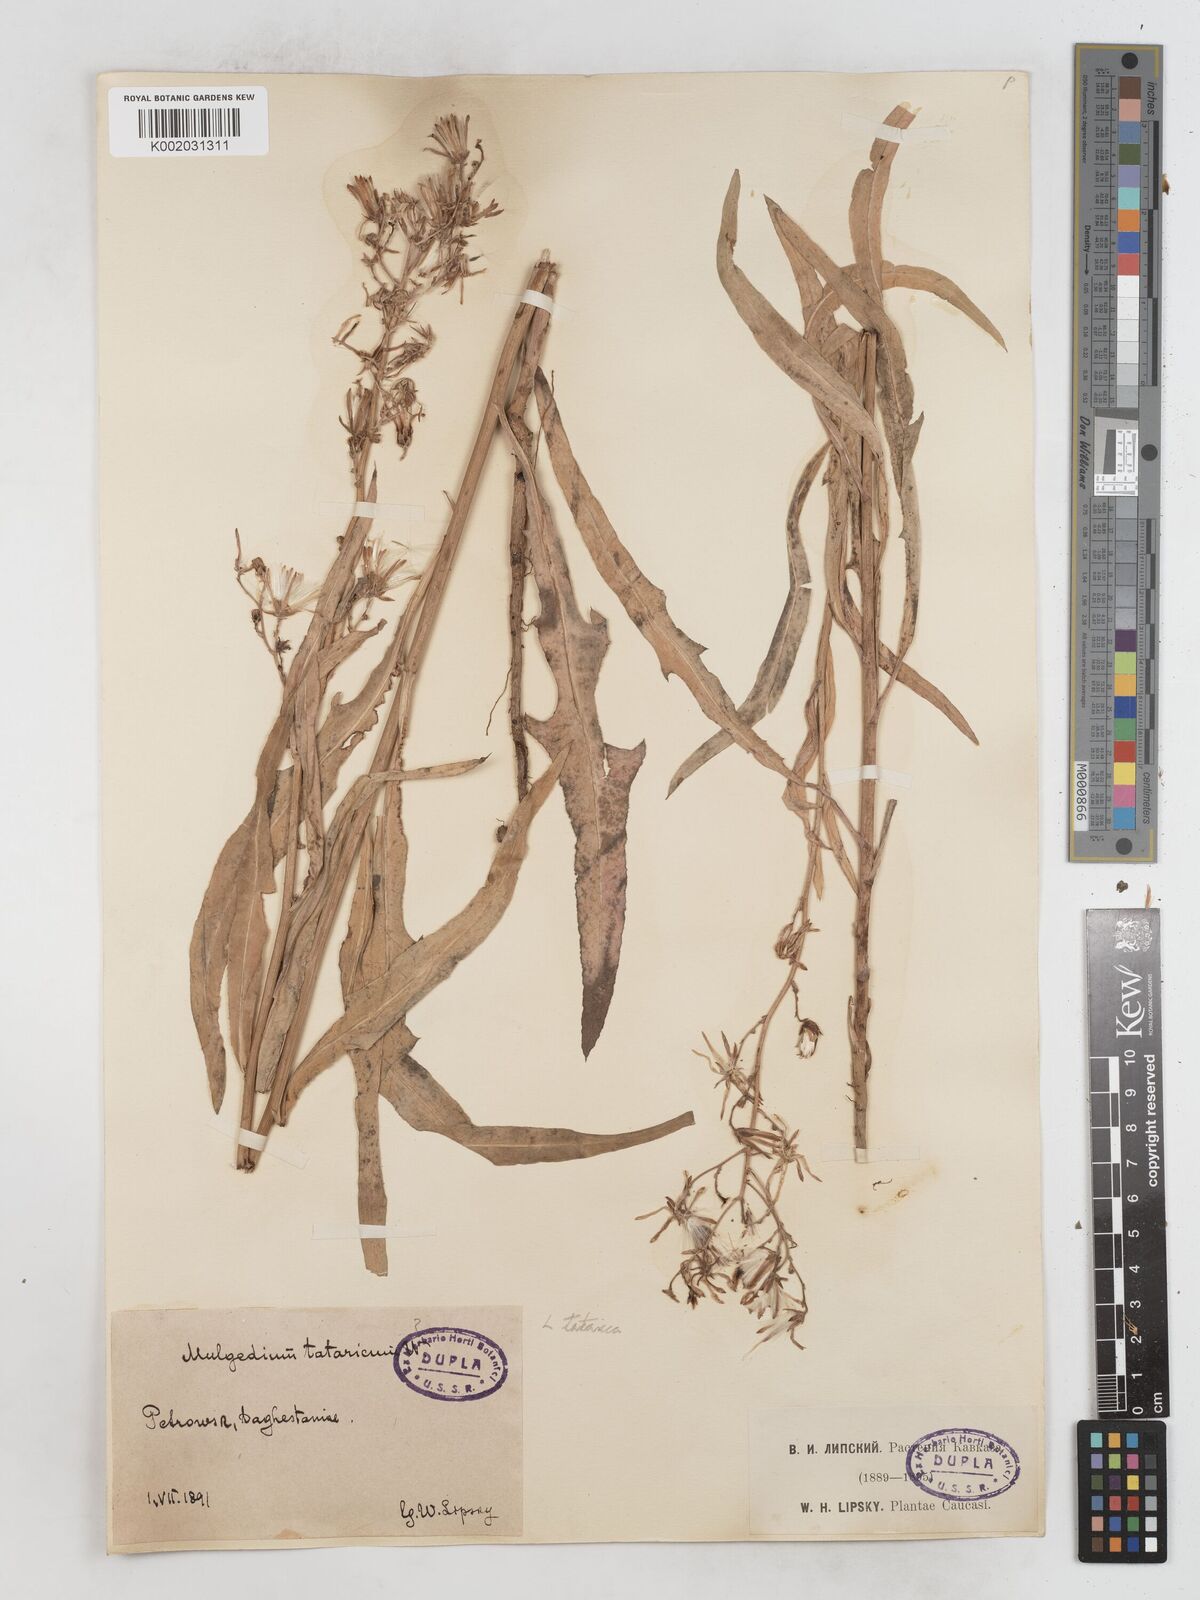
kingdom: Plantae
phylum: Tracheophyta
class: Magnoliopsida
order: Asterales
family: Asteraceae
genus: Lactuca
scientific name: Lactuca tatarica
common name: Blue lettuce
